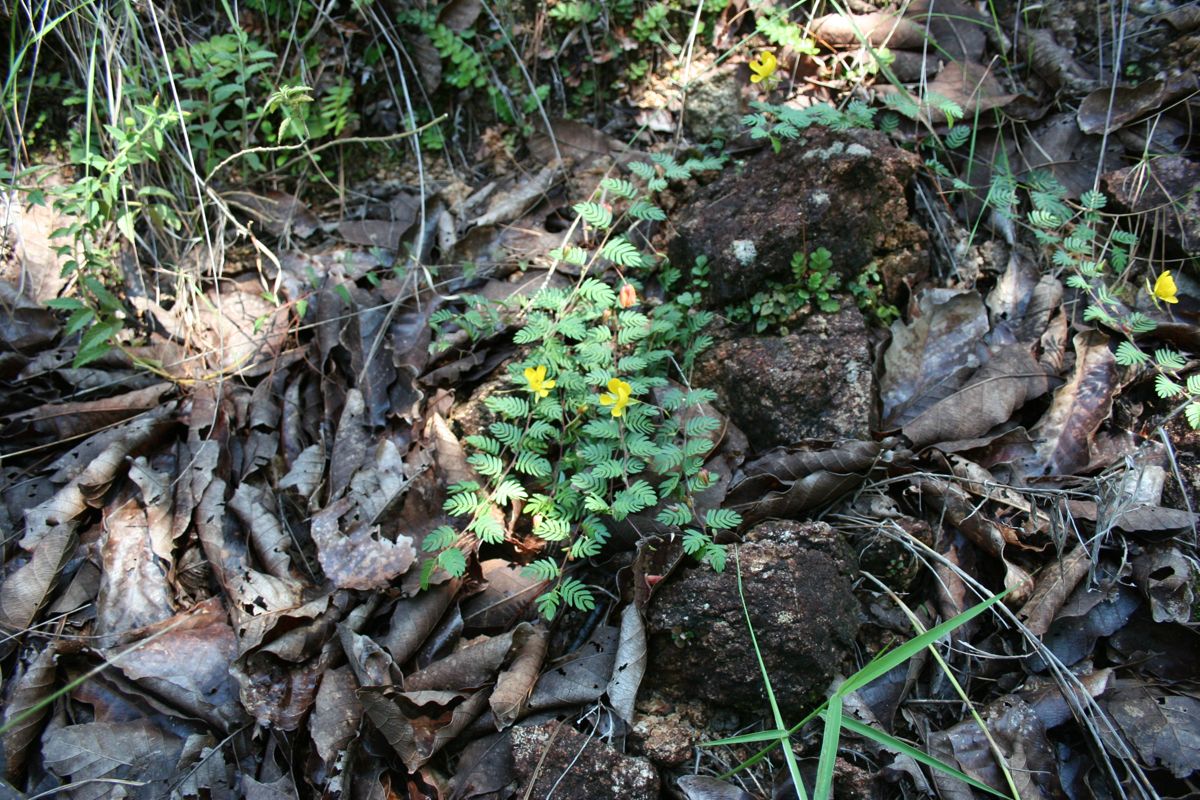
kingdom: Plantae
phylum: Tracheophyta
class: Magnoliopsida
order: Fabales
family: Fabaceae
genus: Chamaecrista
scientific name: Chamaecrista serpens
